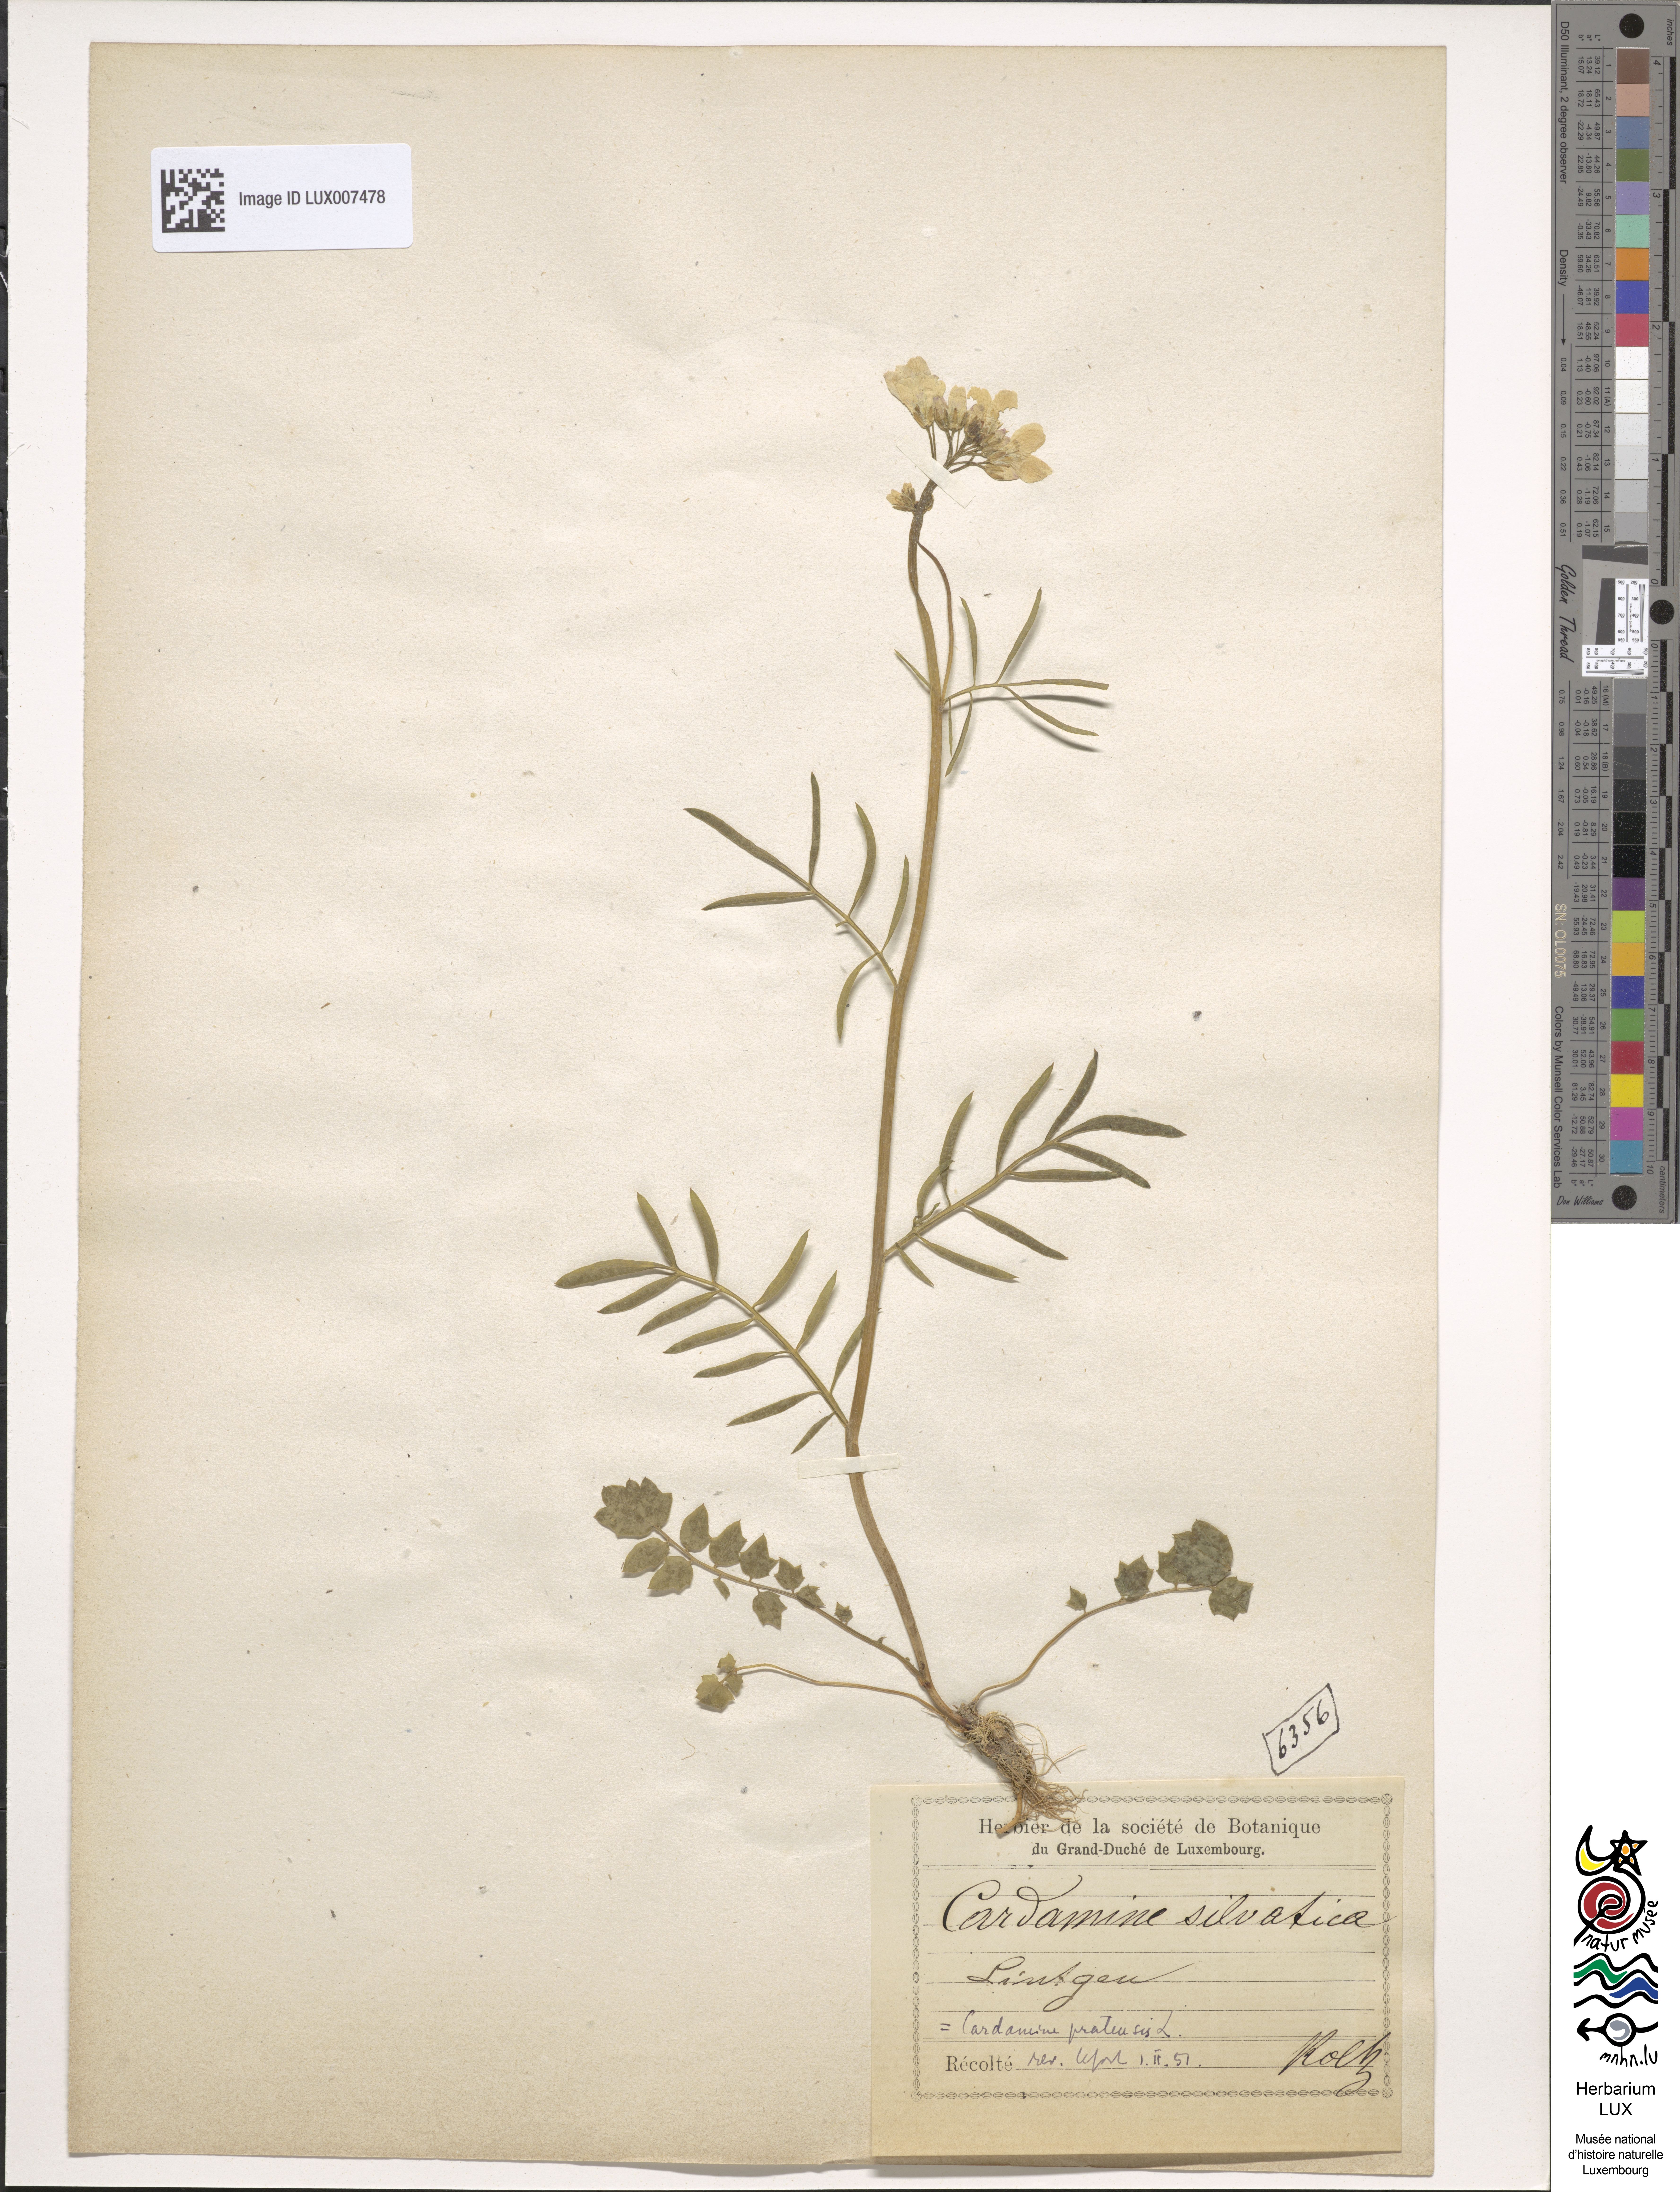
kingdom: Plantae
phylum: Tracheophyta
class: Magnoliopsida
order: Brassicales
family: Brassicaceae
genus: Cardamine
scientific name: Cardamine pratensis
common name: Cuckoo flower
